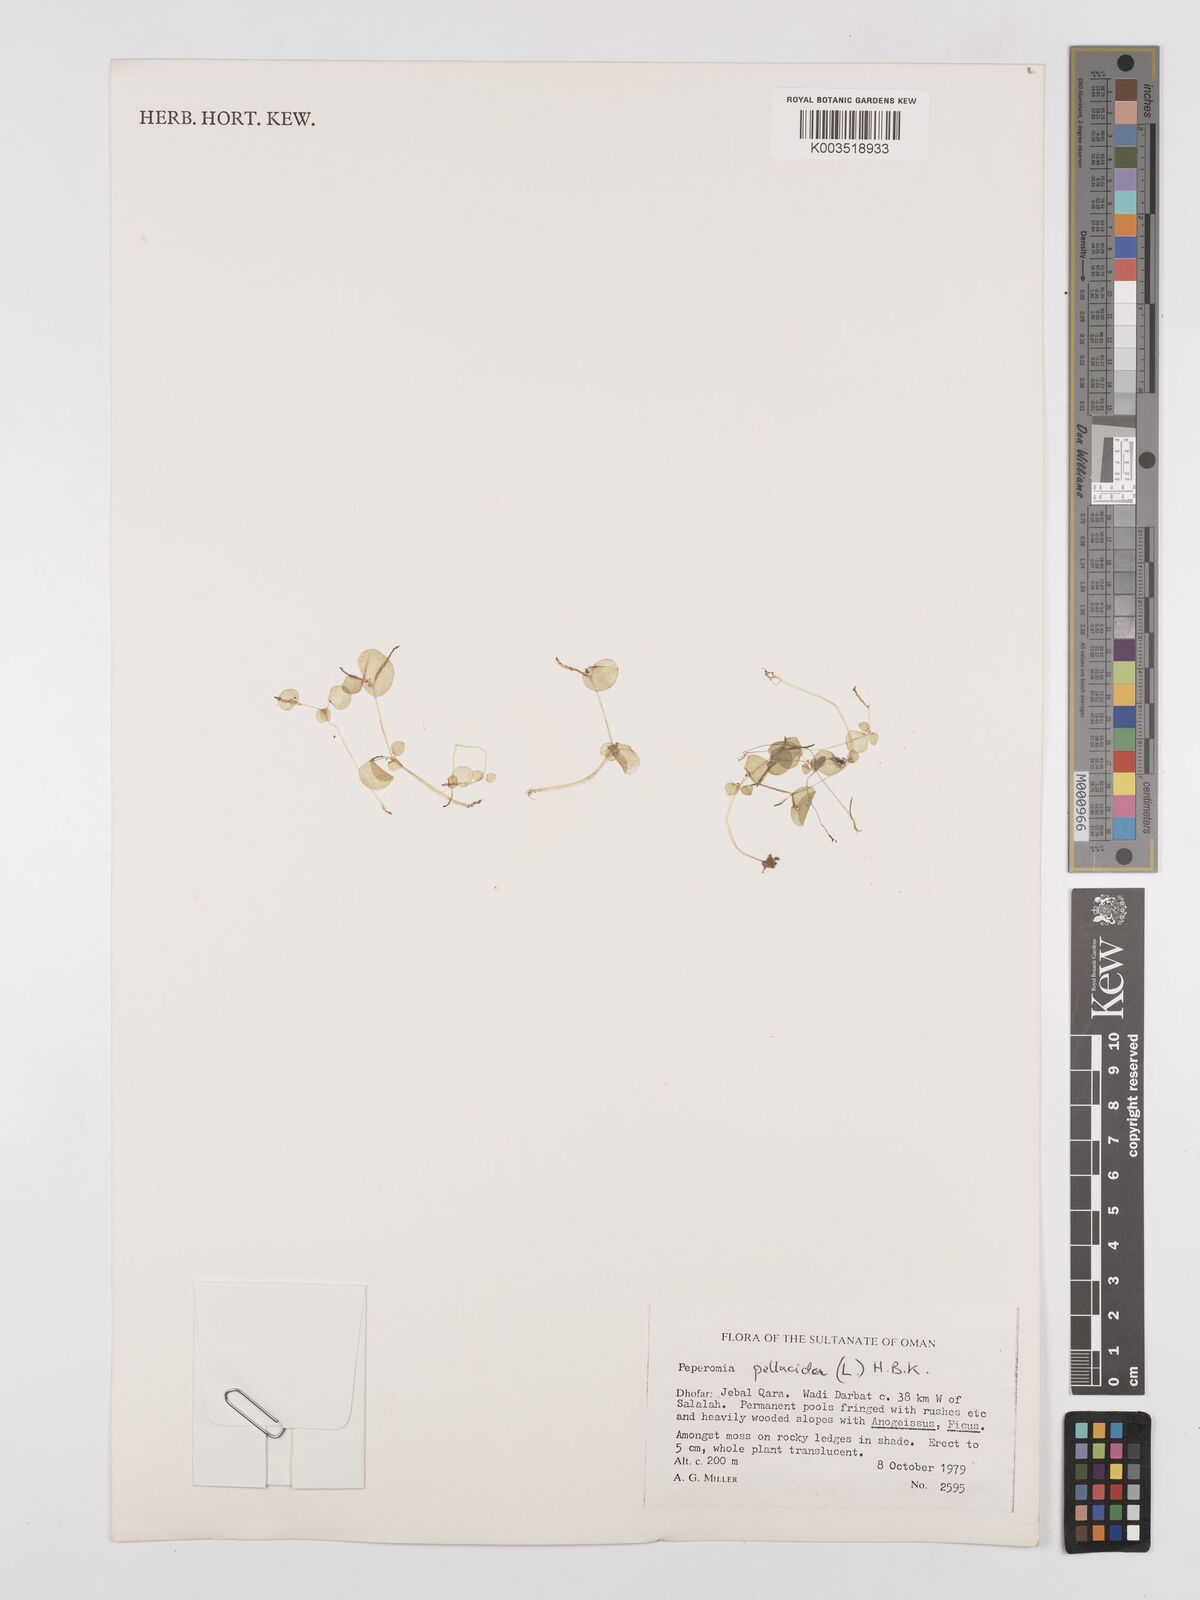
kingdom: Plantae
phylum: Tracheophyta
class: Magnoliopsida
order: Piperales
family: Piperaceae
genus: Peperomia
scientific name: Peperomia pellucida
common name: Man to man
